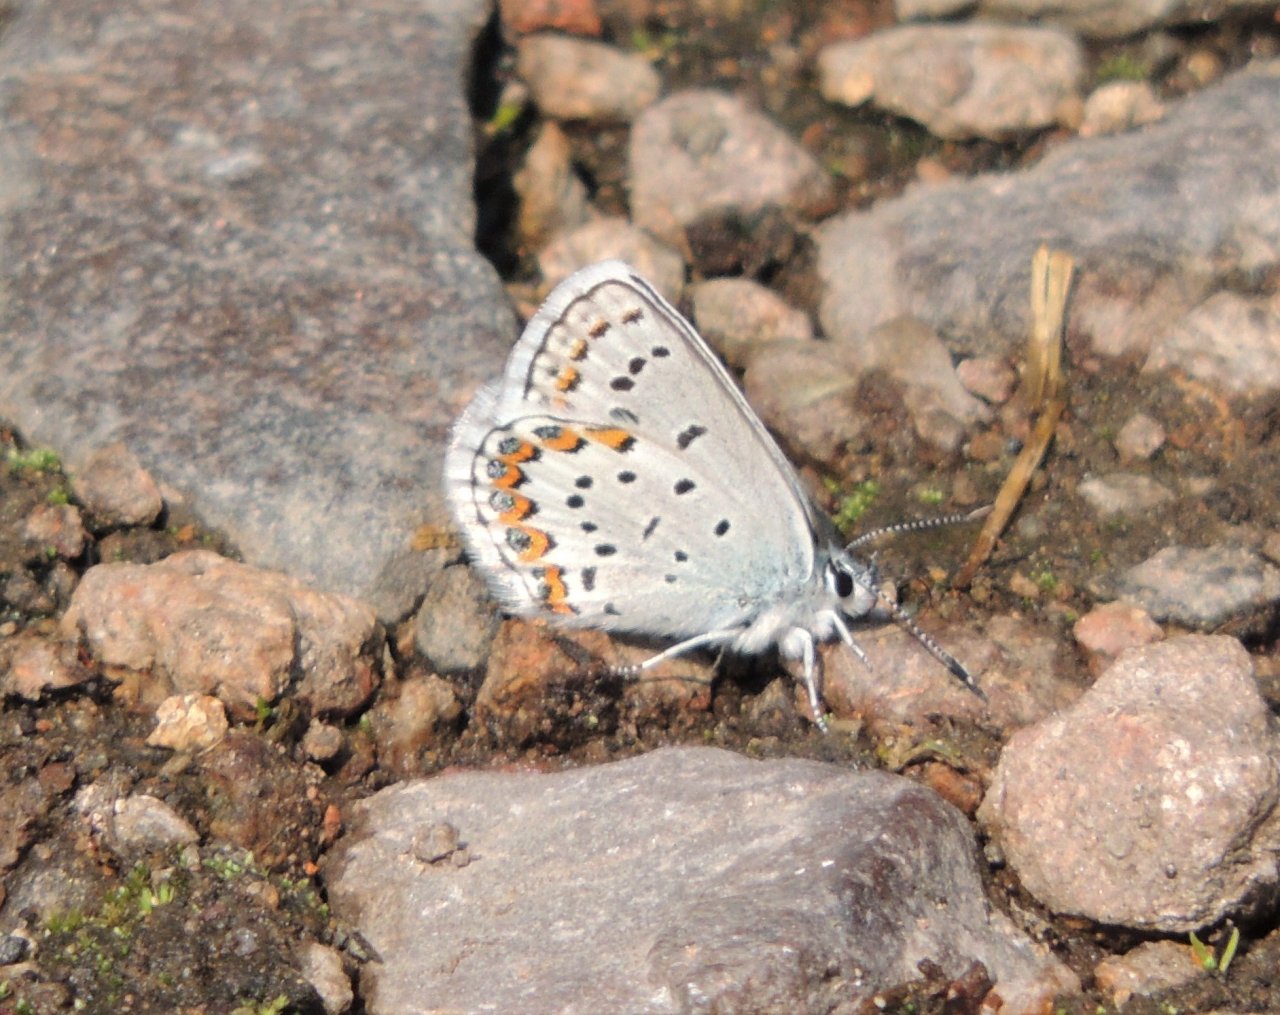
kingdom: Animalia
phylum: Arthropoda
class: Insecta
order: Lepidoptera
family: Lycaenidae
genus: Lycaeides
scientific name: Lycaeides melissa
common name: Melissa Blue
